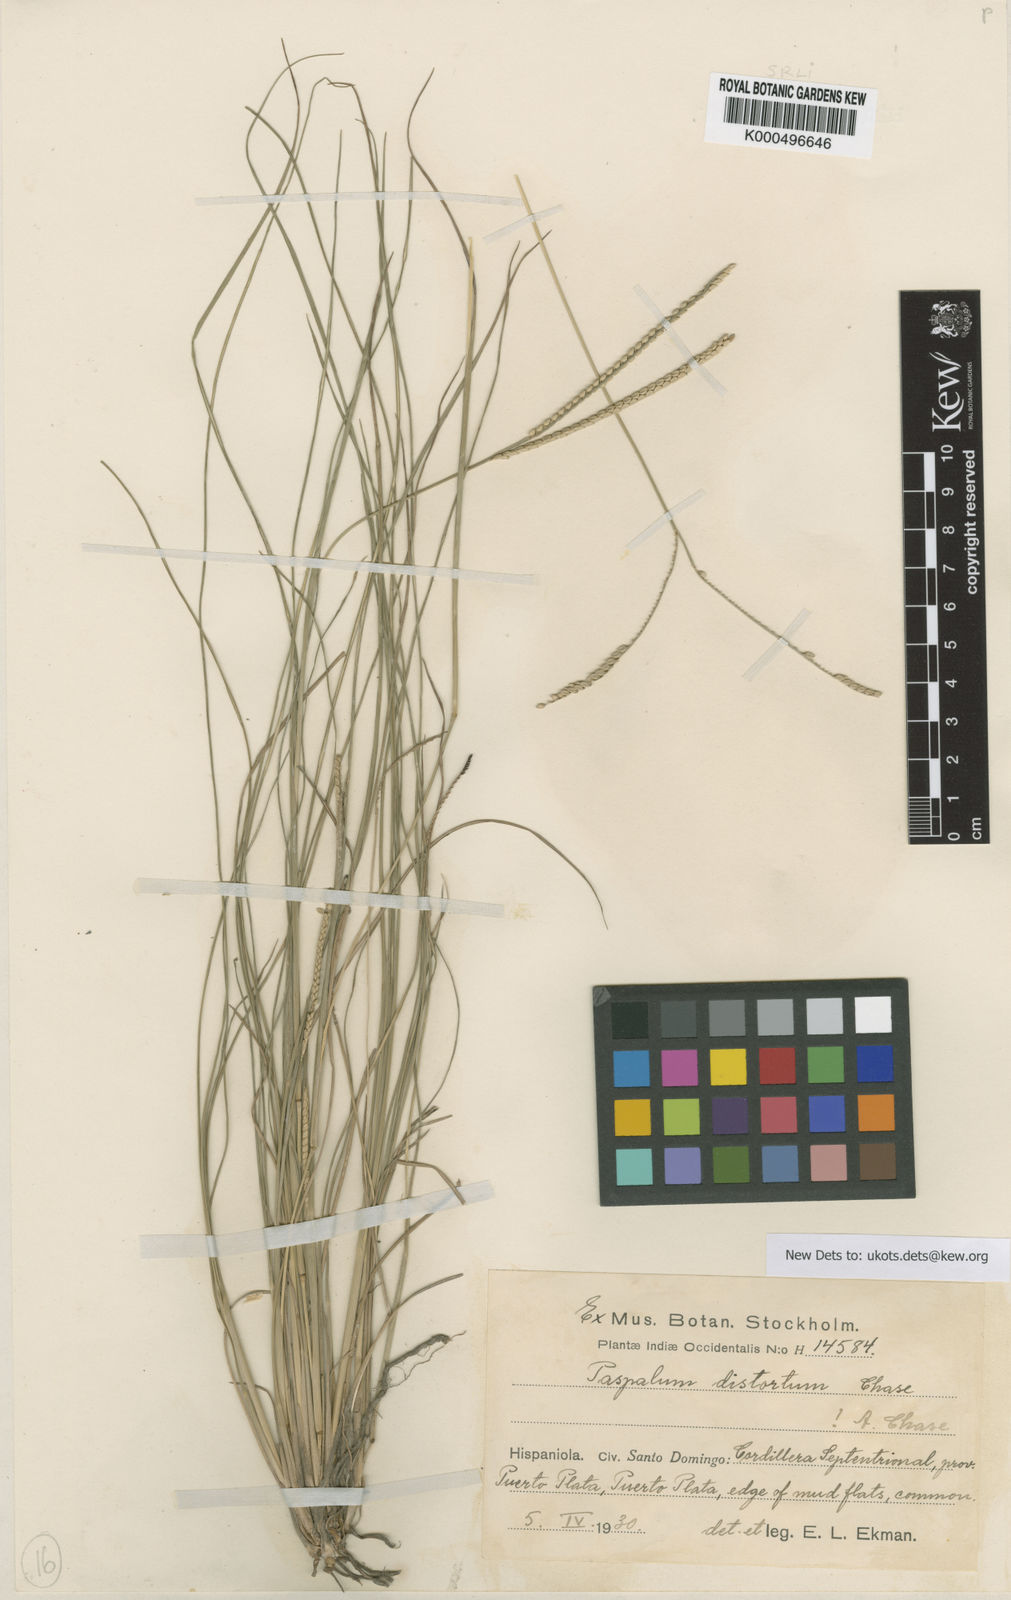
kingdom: Plantae
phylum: Tracheophyta
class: Liliopsida
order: Poales
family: Poaceae
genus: Paspalum
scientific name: Paspalum distortum
